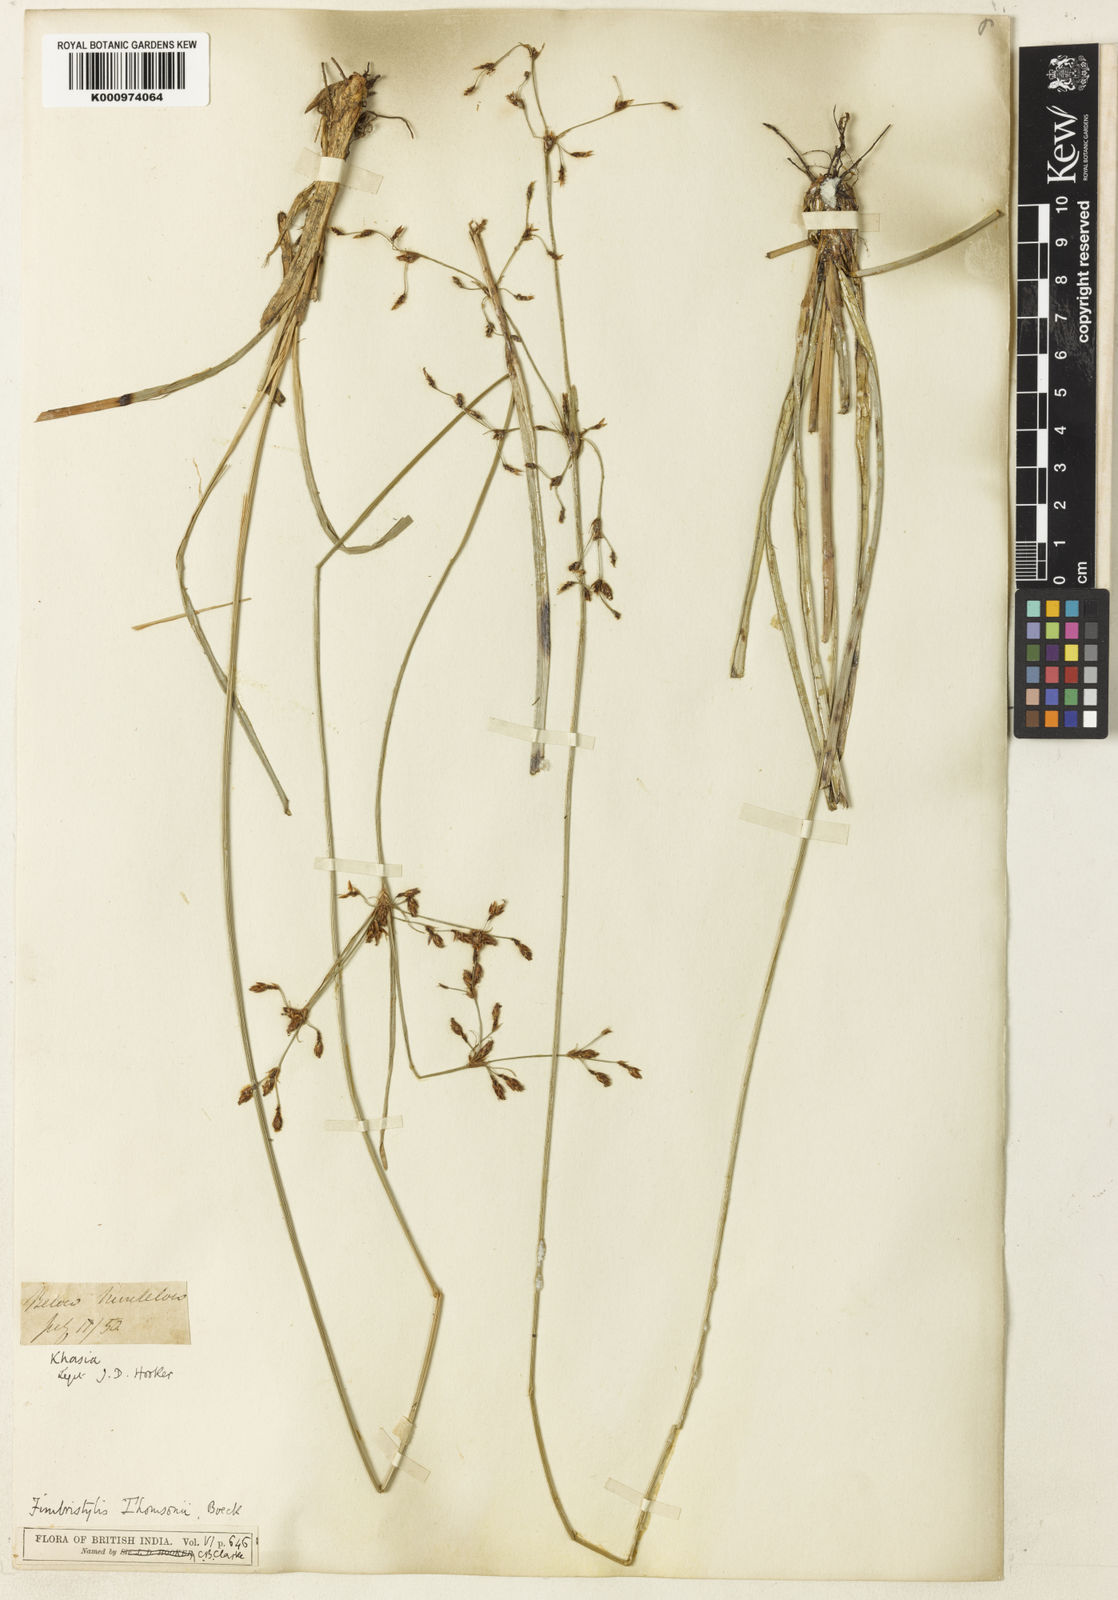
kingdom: Plantae
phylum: Tracheophyta
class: Liliopsida
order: Poales
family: Cyperaceae
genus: Fimbristylis
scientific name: Fimbristylis thomsonii
